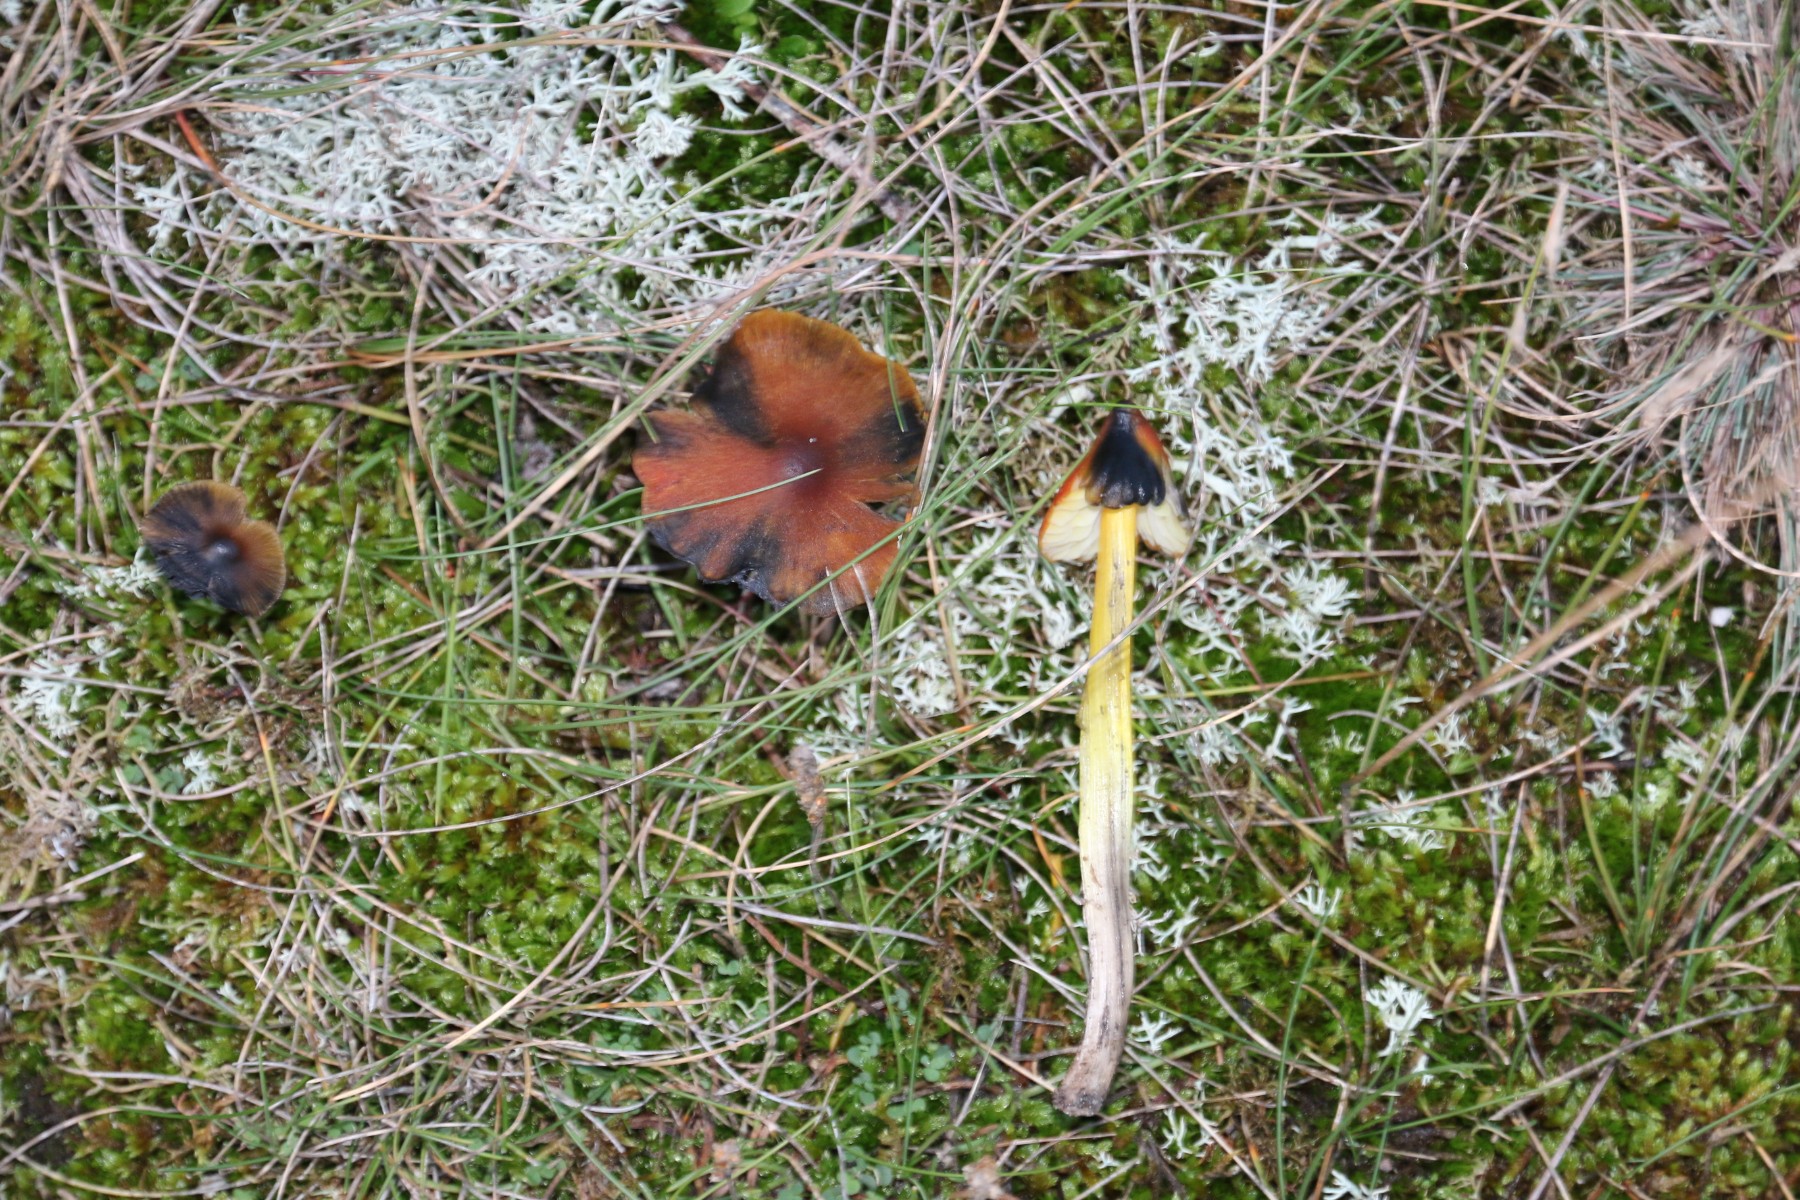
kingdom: Fungi
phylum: Basidiomycota
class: Agaricomycetes
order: Agaricales
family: Hygrophoraceae
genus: Hygrocybe
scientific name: Hygrocybe conica
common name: kegle-vokshat
